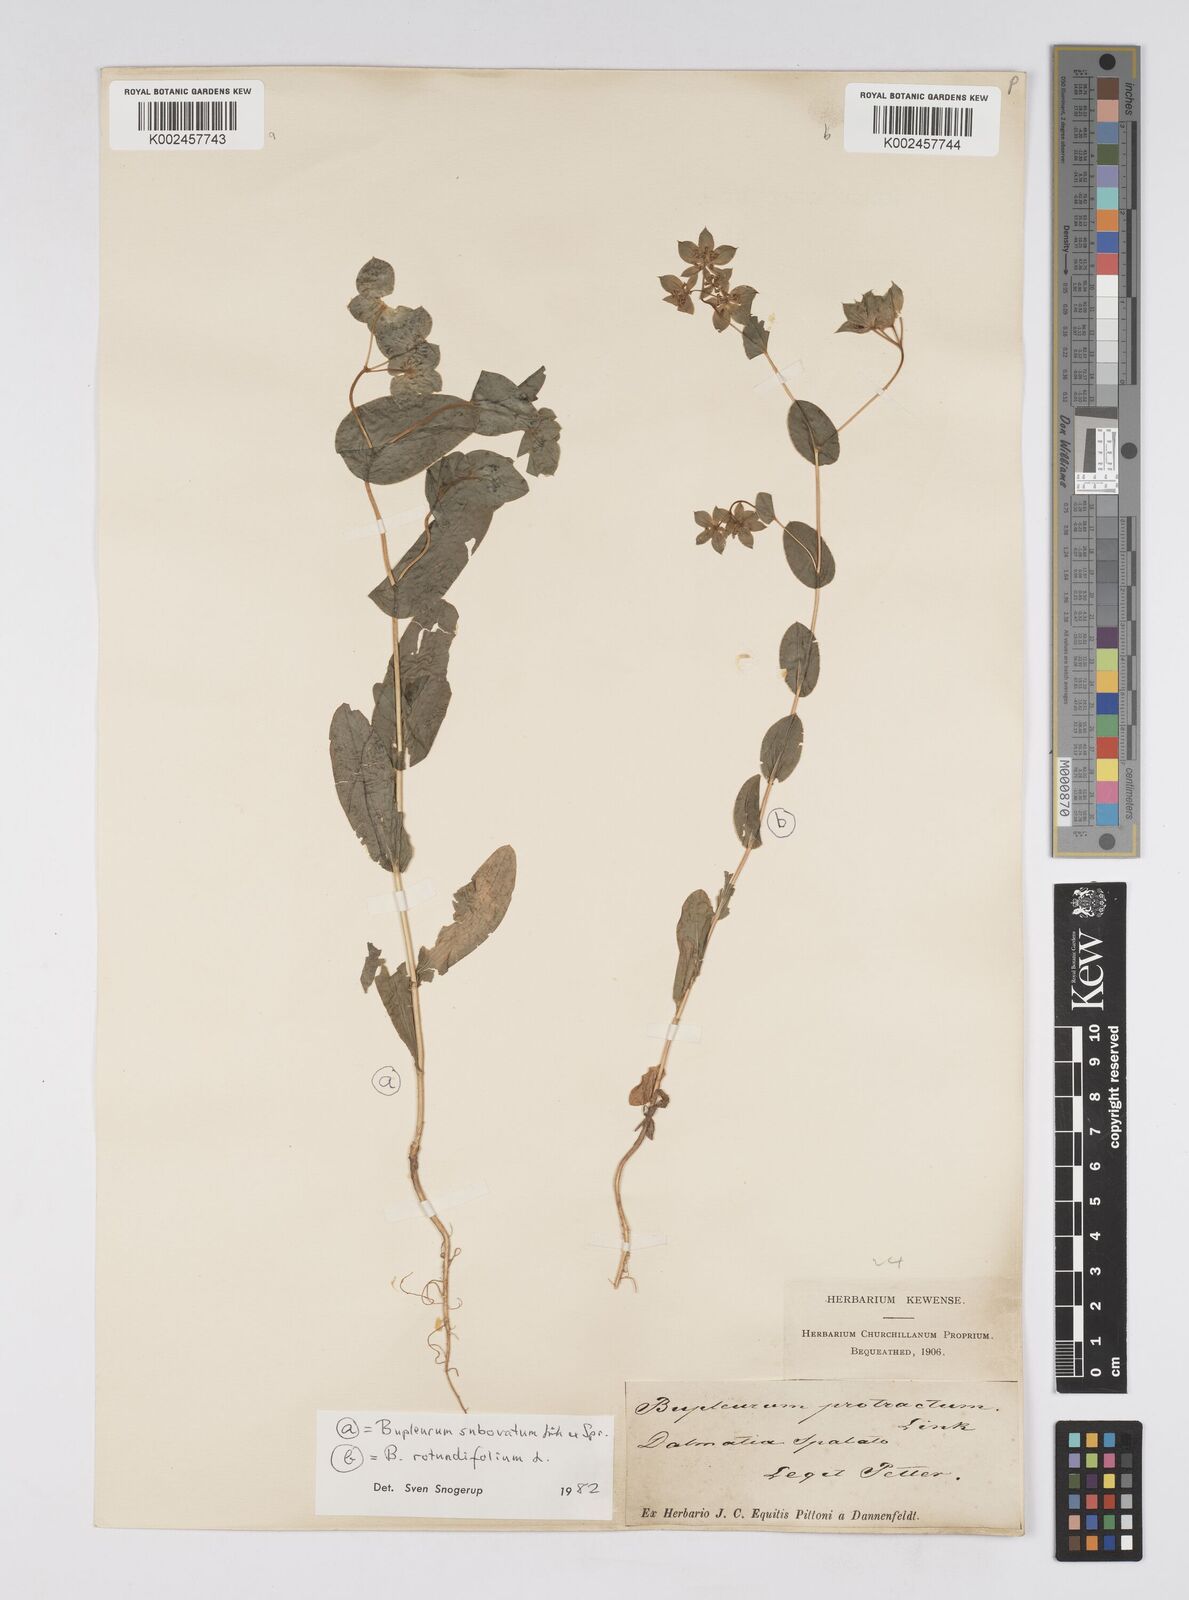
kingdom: Plantae
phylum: Tracheophyta
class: Magnoliopsida
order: Apiales
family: Apiaceae
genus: Bupleurum
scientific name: Bupleurum subovatum
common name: False thorow-wax
